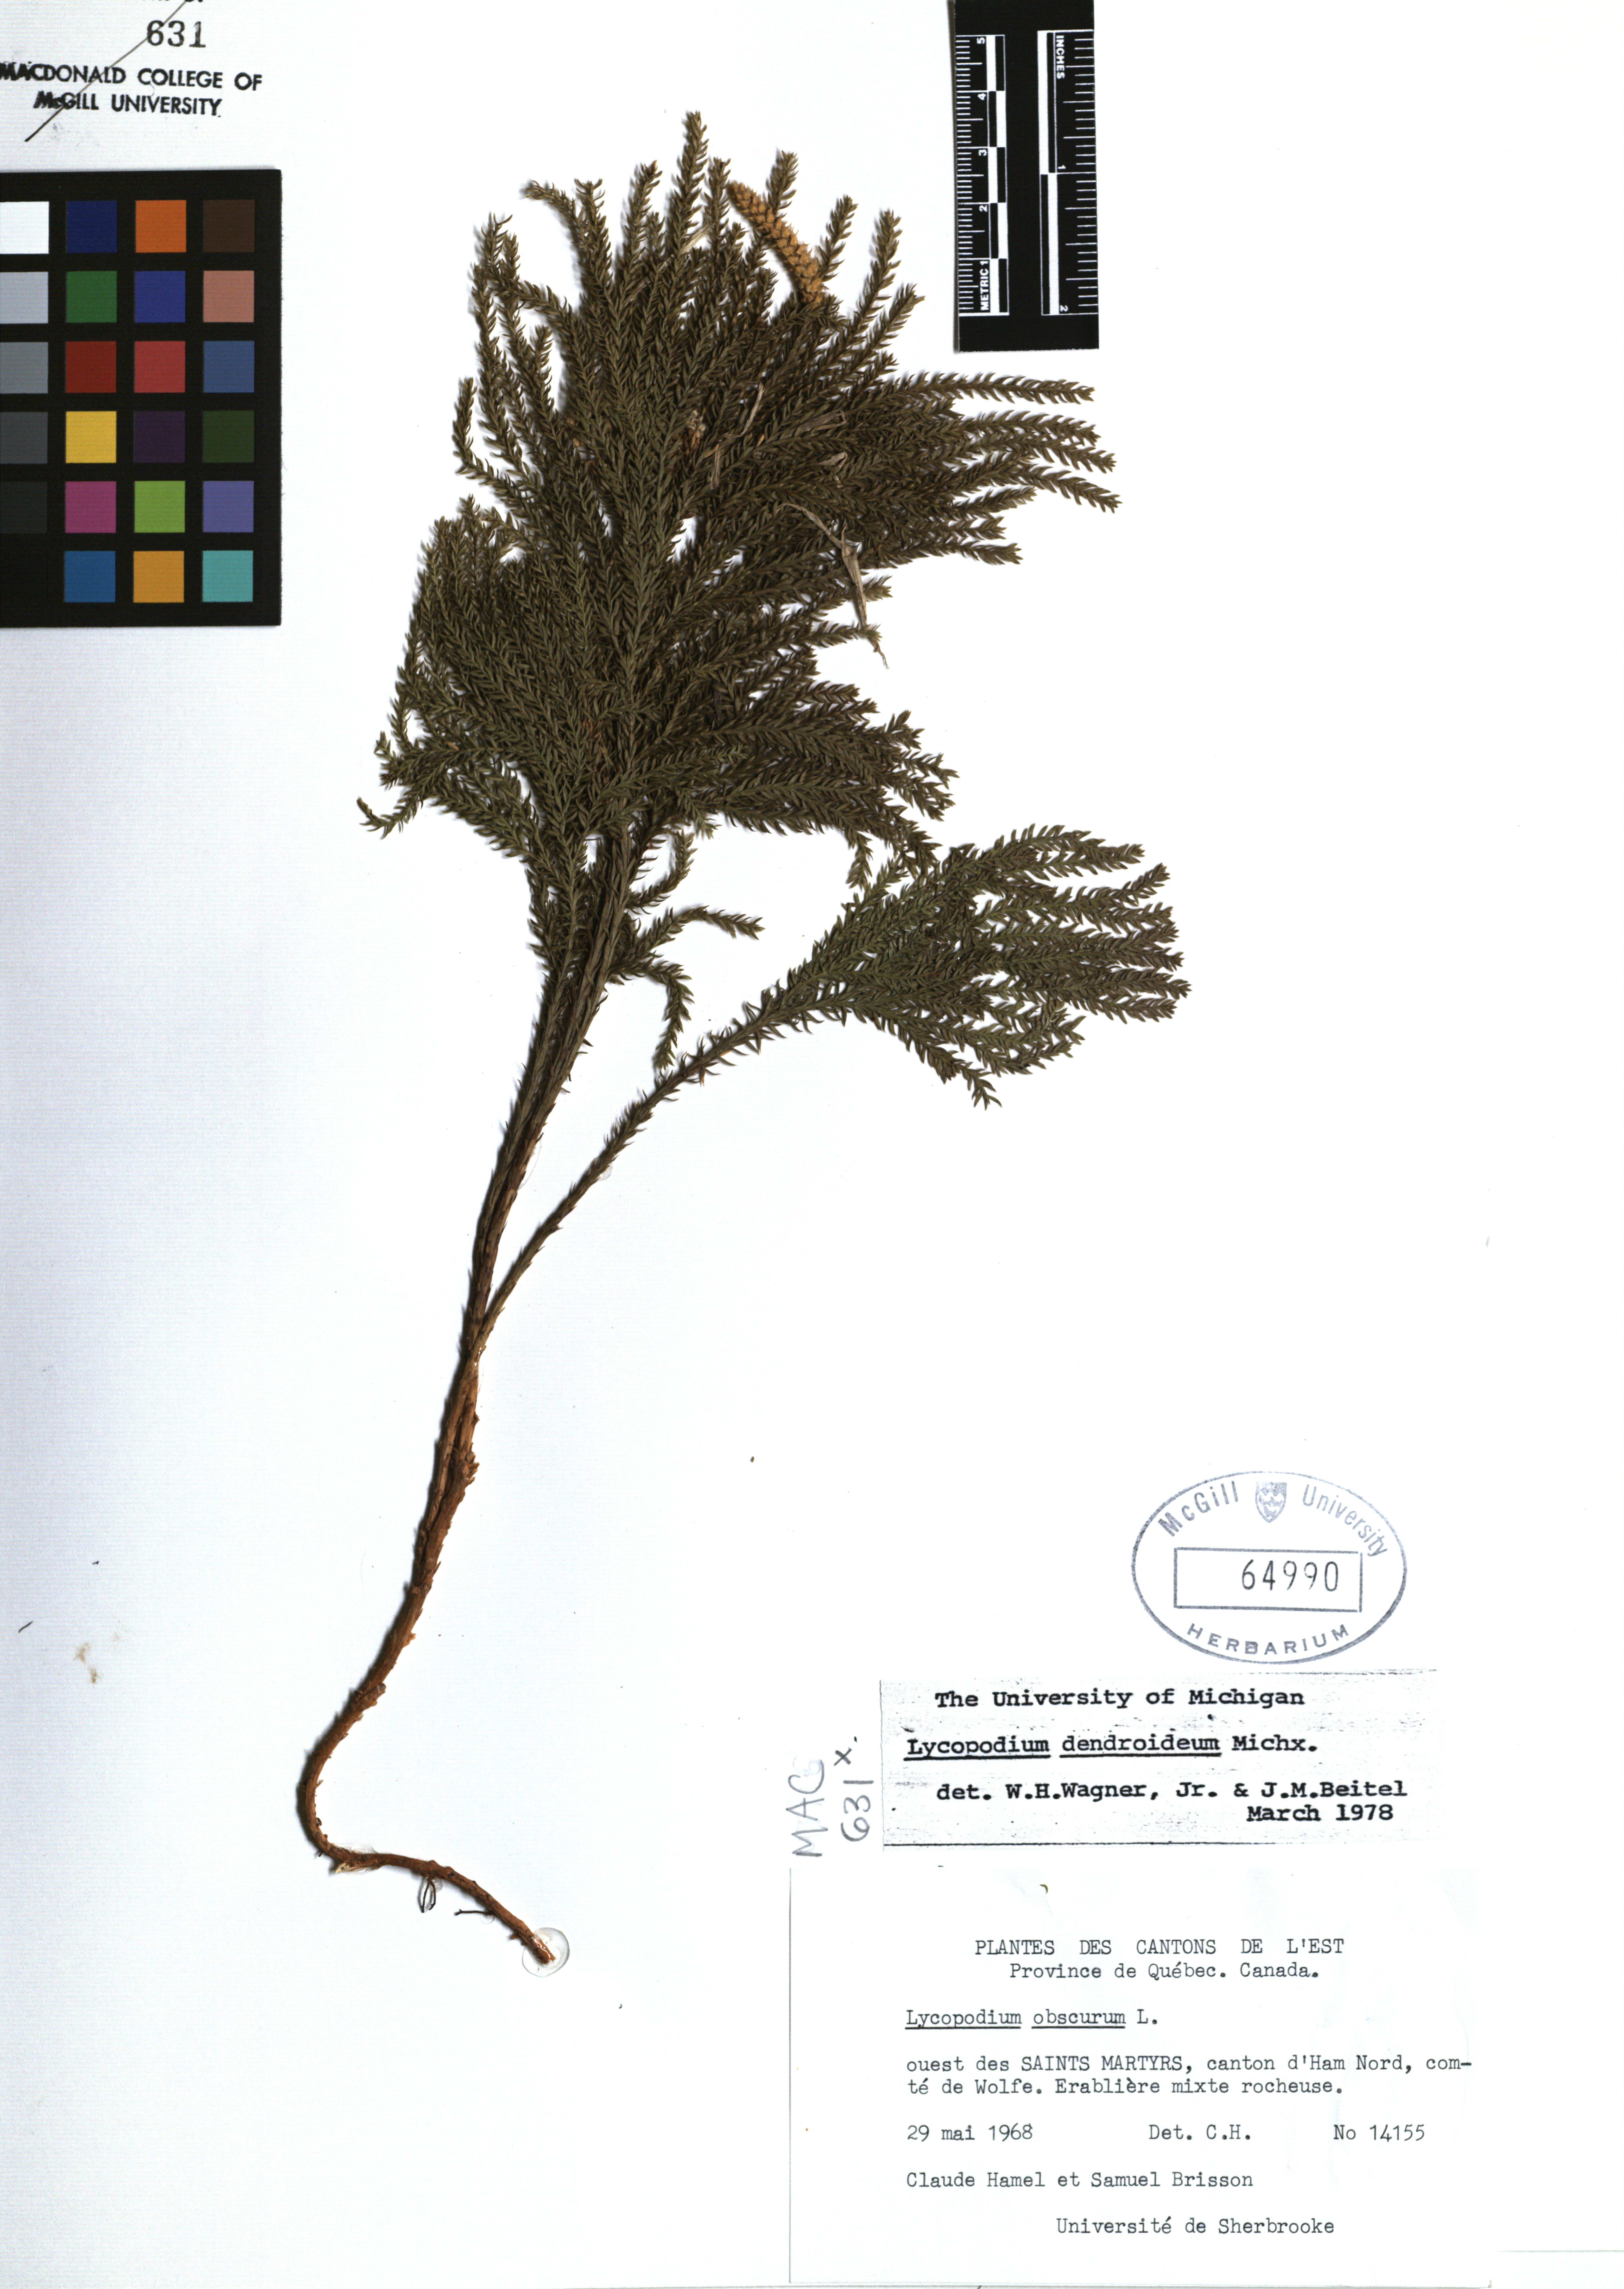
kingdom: Plantae
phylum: Tracheophyta
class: Lycopodiopsida
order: Lycopodiales
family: Lycopodiaceae
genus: Dendrolycopodium
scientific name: Dendrolycopodium dendroideum
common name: Northern tree-clubmoss
